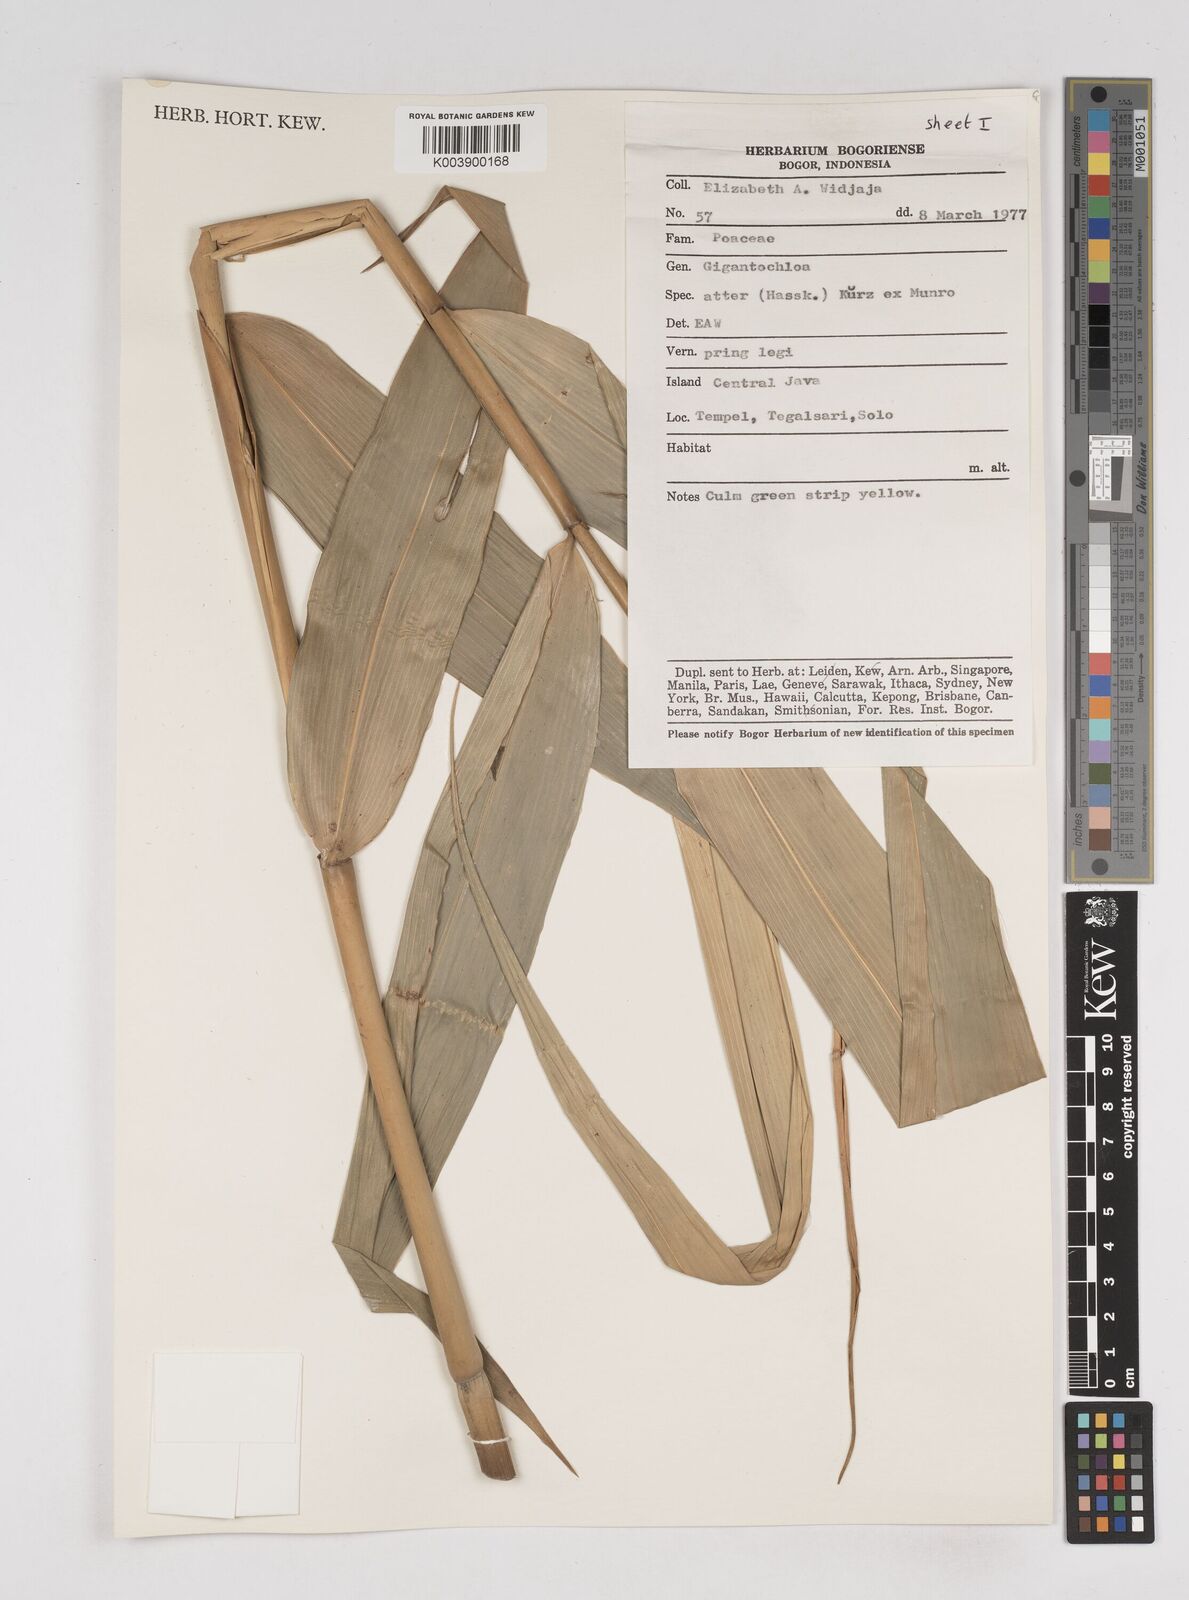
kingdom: Plantae
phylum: Tracheophyta
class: Liliopsida
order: Poales
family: Poaceae
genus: Gigantochloa
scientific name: Gigantochloa atter
